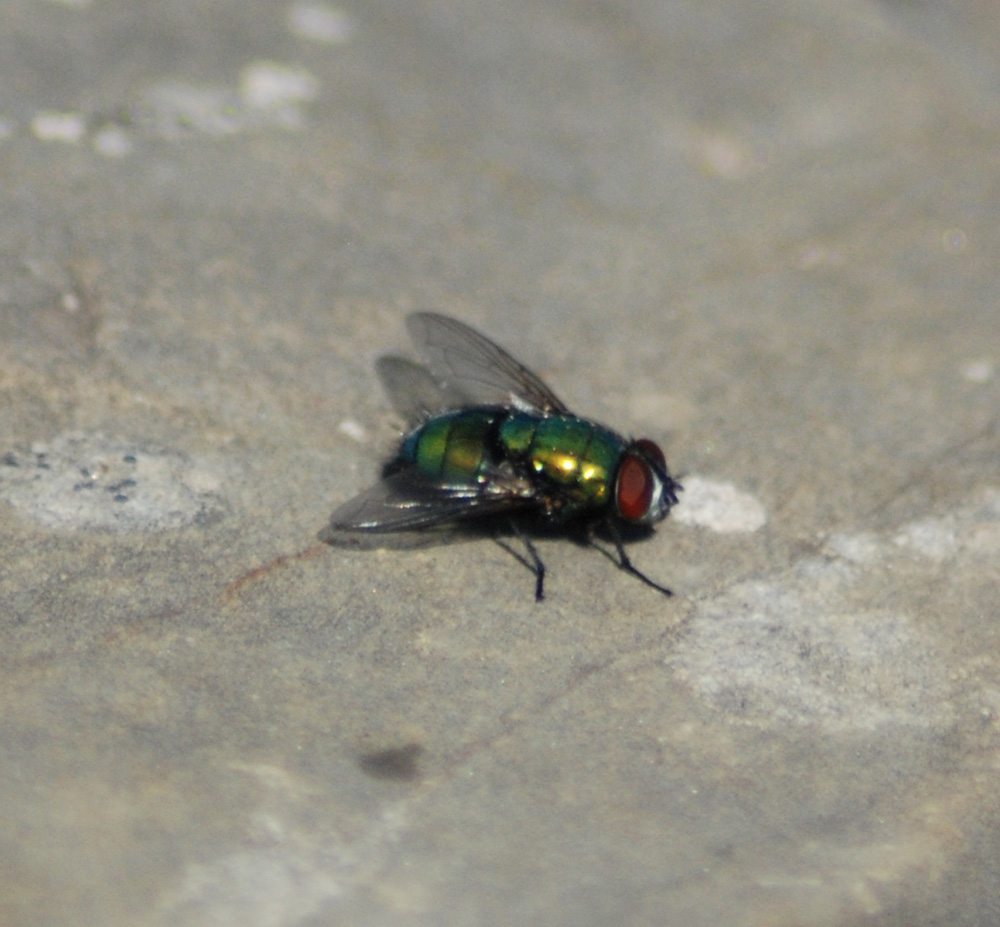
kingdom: Animalia
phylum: Arthropoda
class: Insecta
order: Diptera
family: Calliphoridae
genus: Lucilia
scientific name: Lucilia
